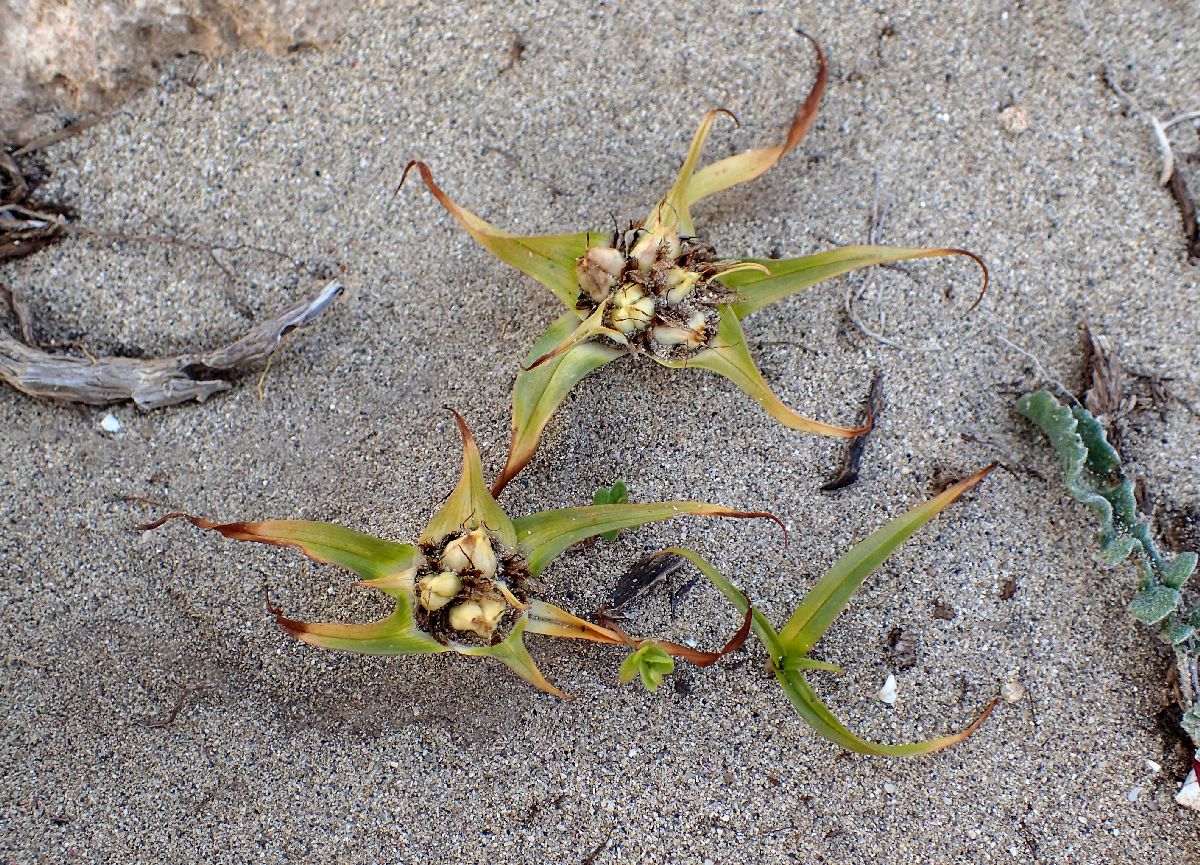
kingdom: Plantae
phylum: Tracheophyta
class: Liliopsida
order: Liliales
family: Colchicaceae
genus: Colchicum
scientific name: Colchicum rechingeri
